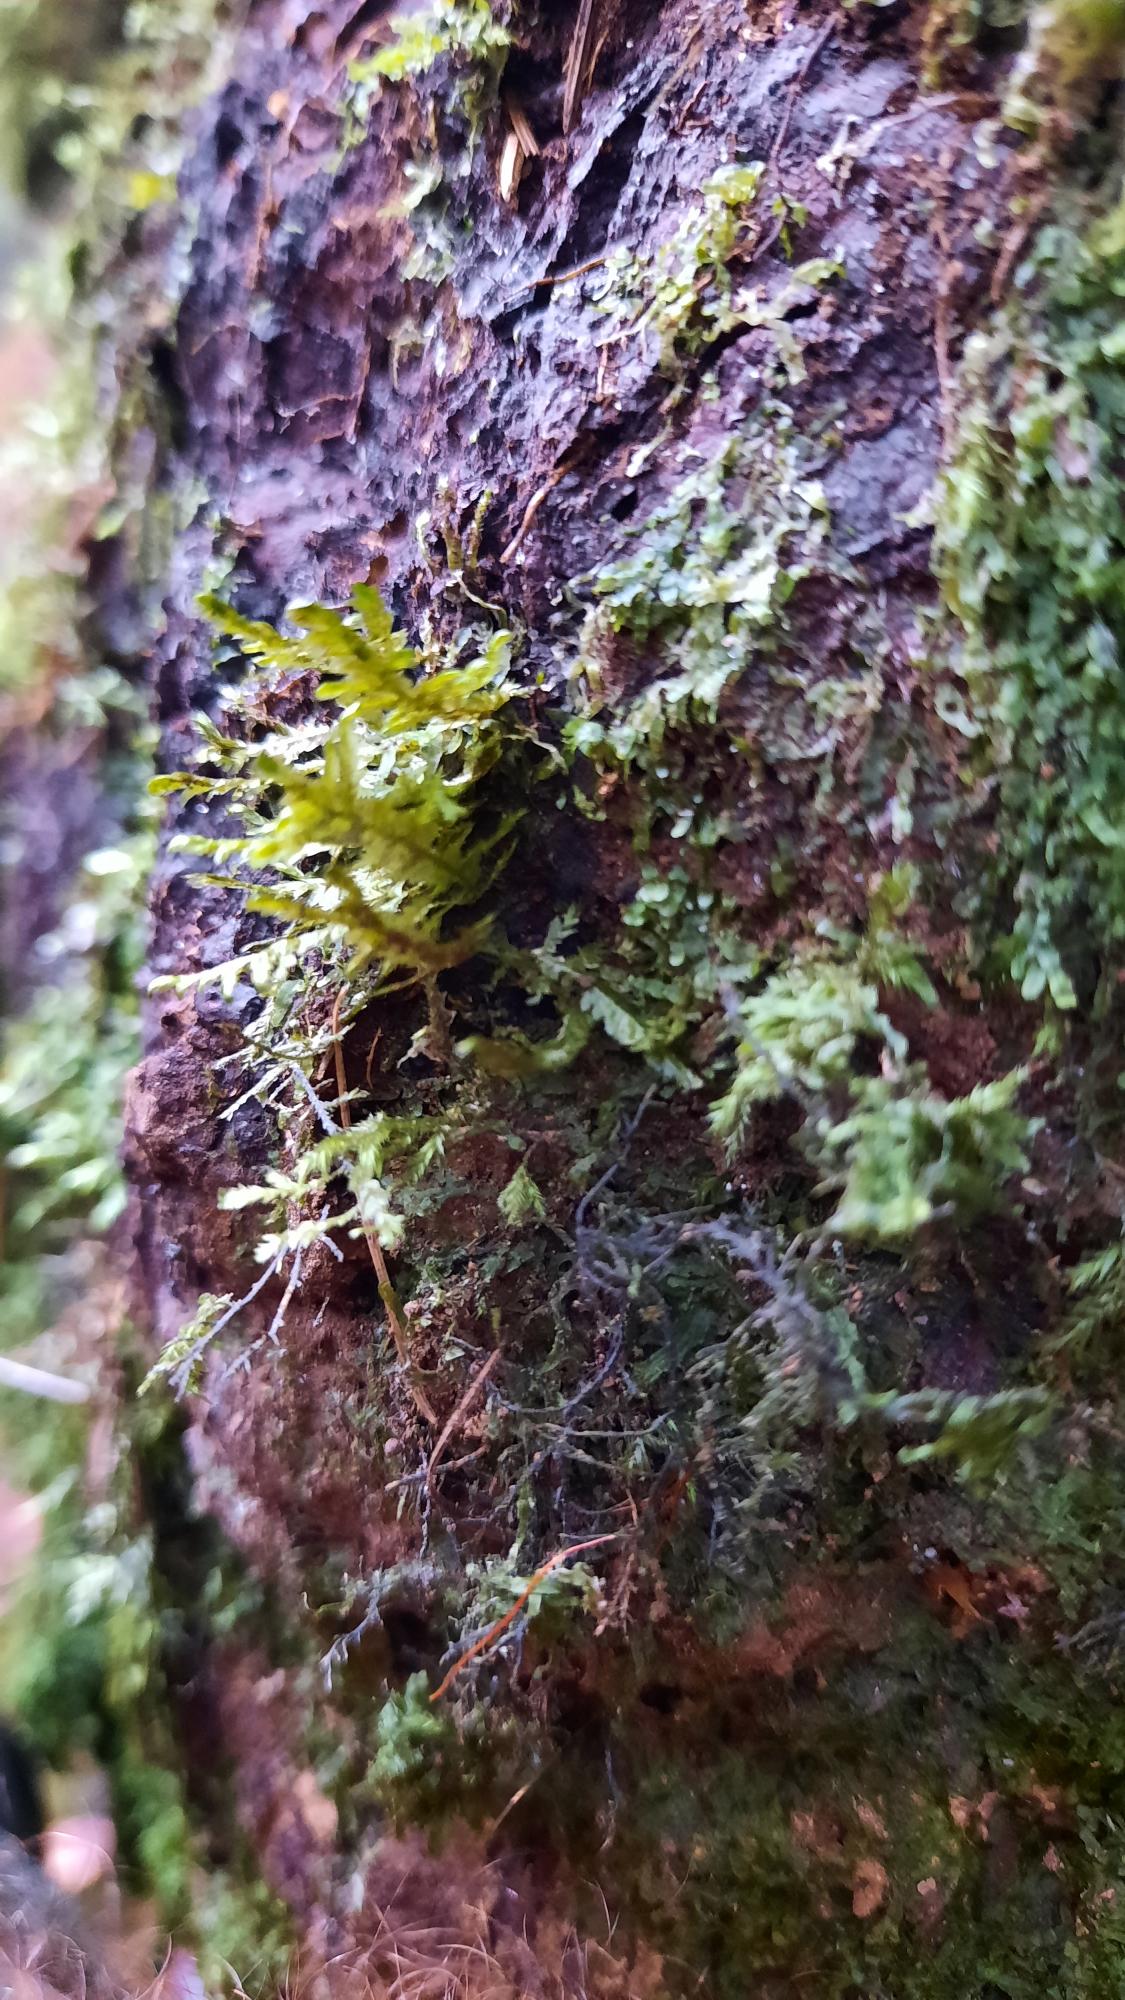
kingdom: Plantae
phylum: Bryophyta
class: Bryopsida
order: Hypnales
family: Neckeraceae
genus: Alleniella
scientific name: Alleniella complanata
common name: Almindelig fladmos
